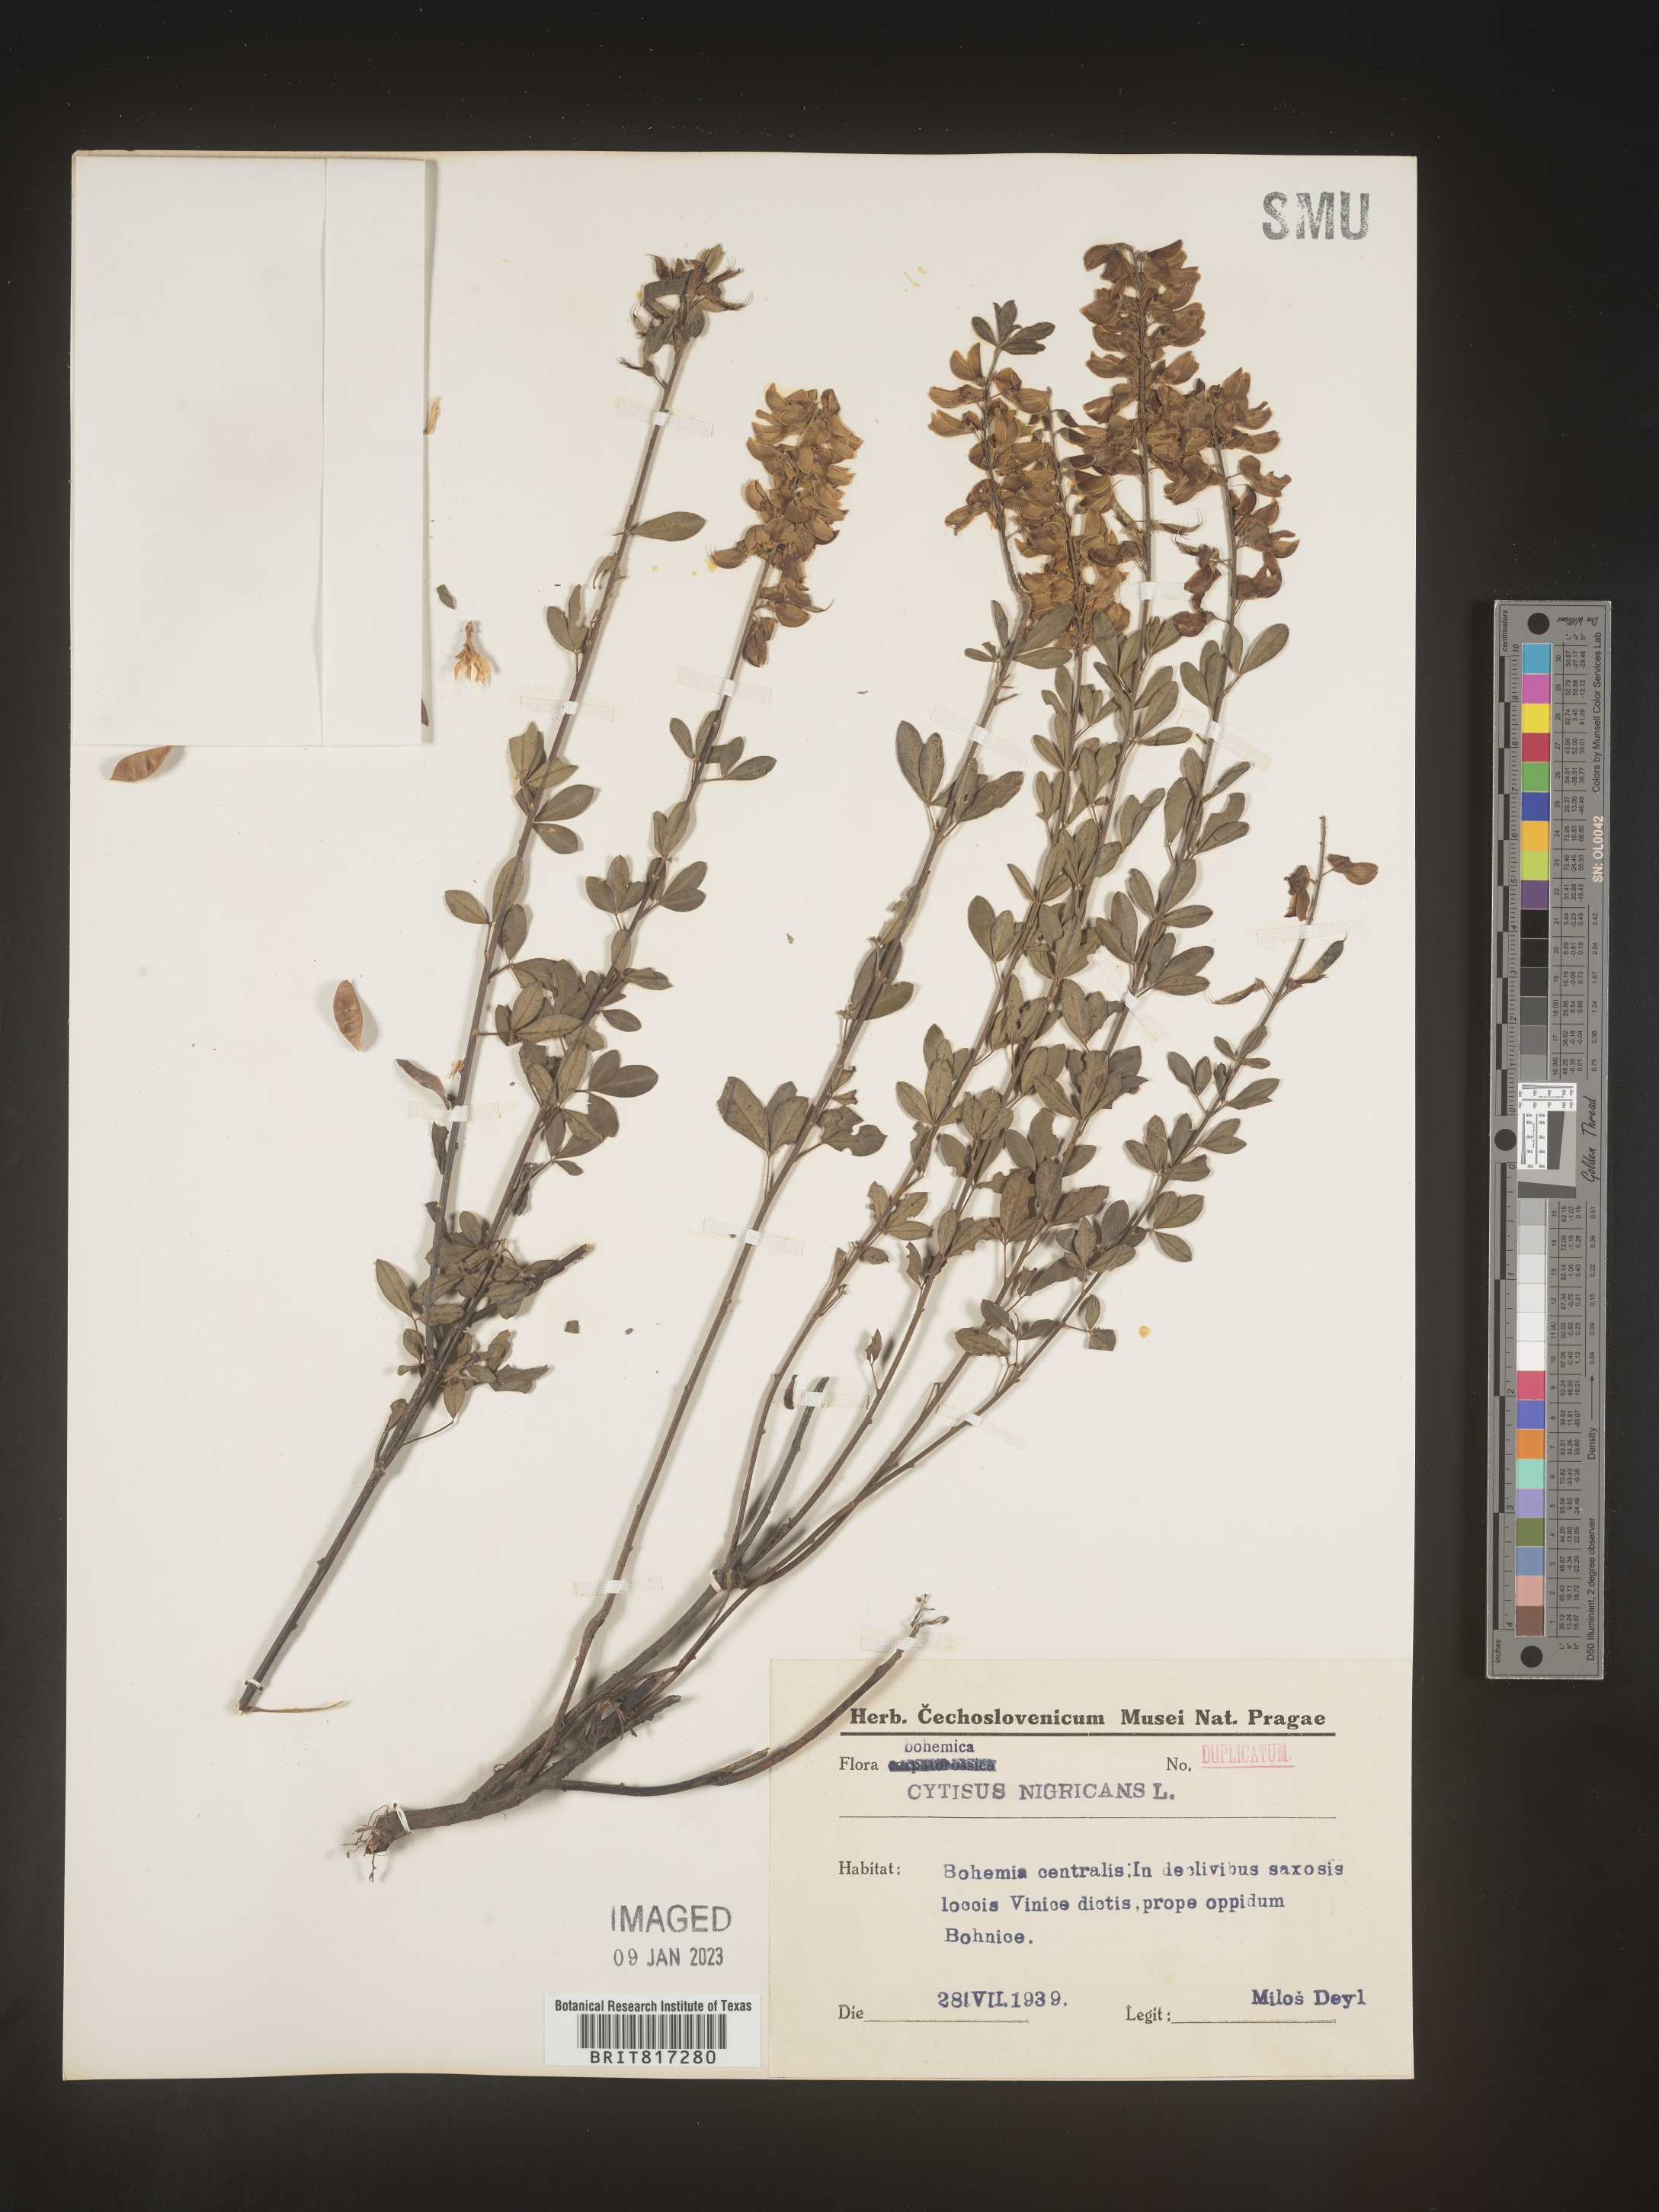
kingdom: Plantae
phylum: Tracheophyta
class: Magnoliopsida
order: Fabales
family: Fabaceae
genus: Cytisus
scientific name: Cytisus
